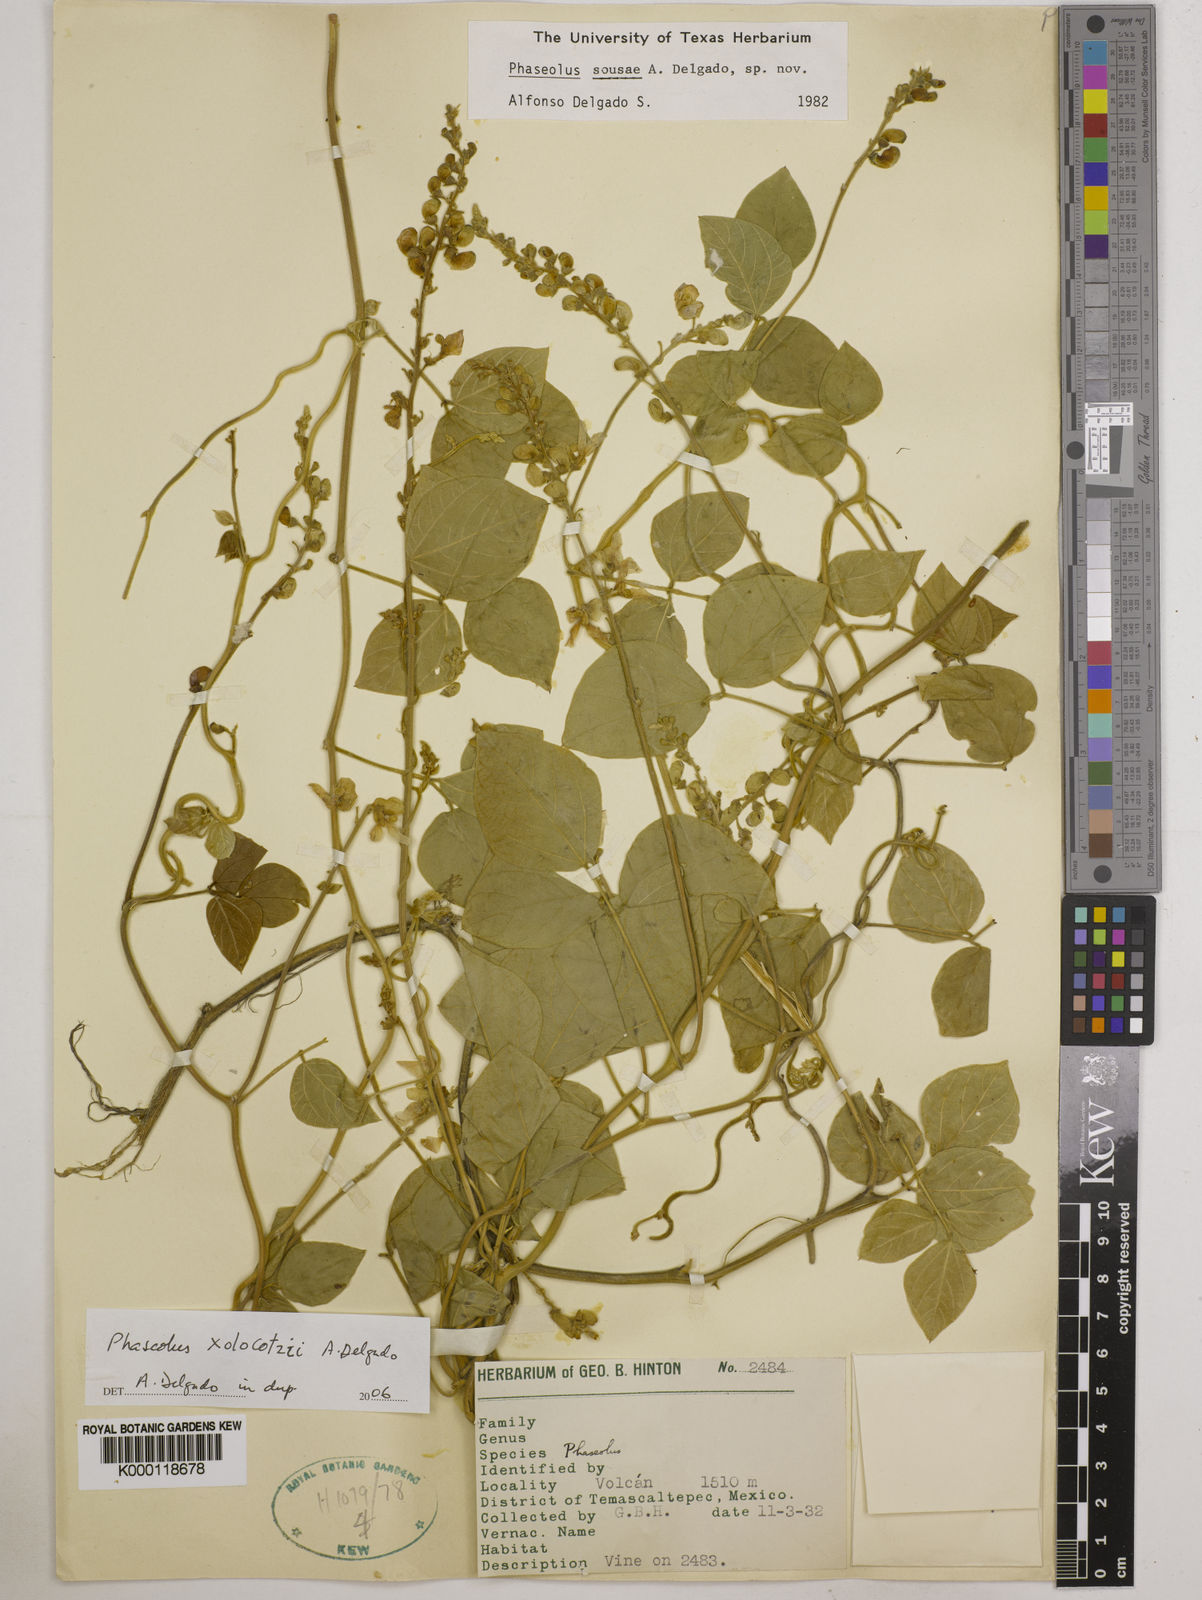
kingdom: Plantae
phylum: Tracheophyta
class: Magnoliopsida
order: Fabales
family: Fabaceae
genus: Phaseolus
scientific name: Phaseolus
